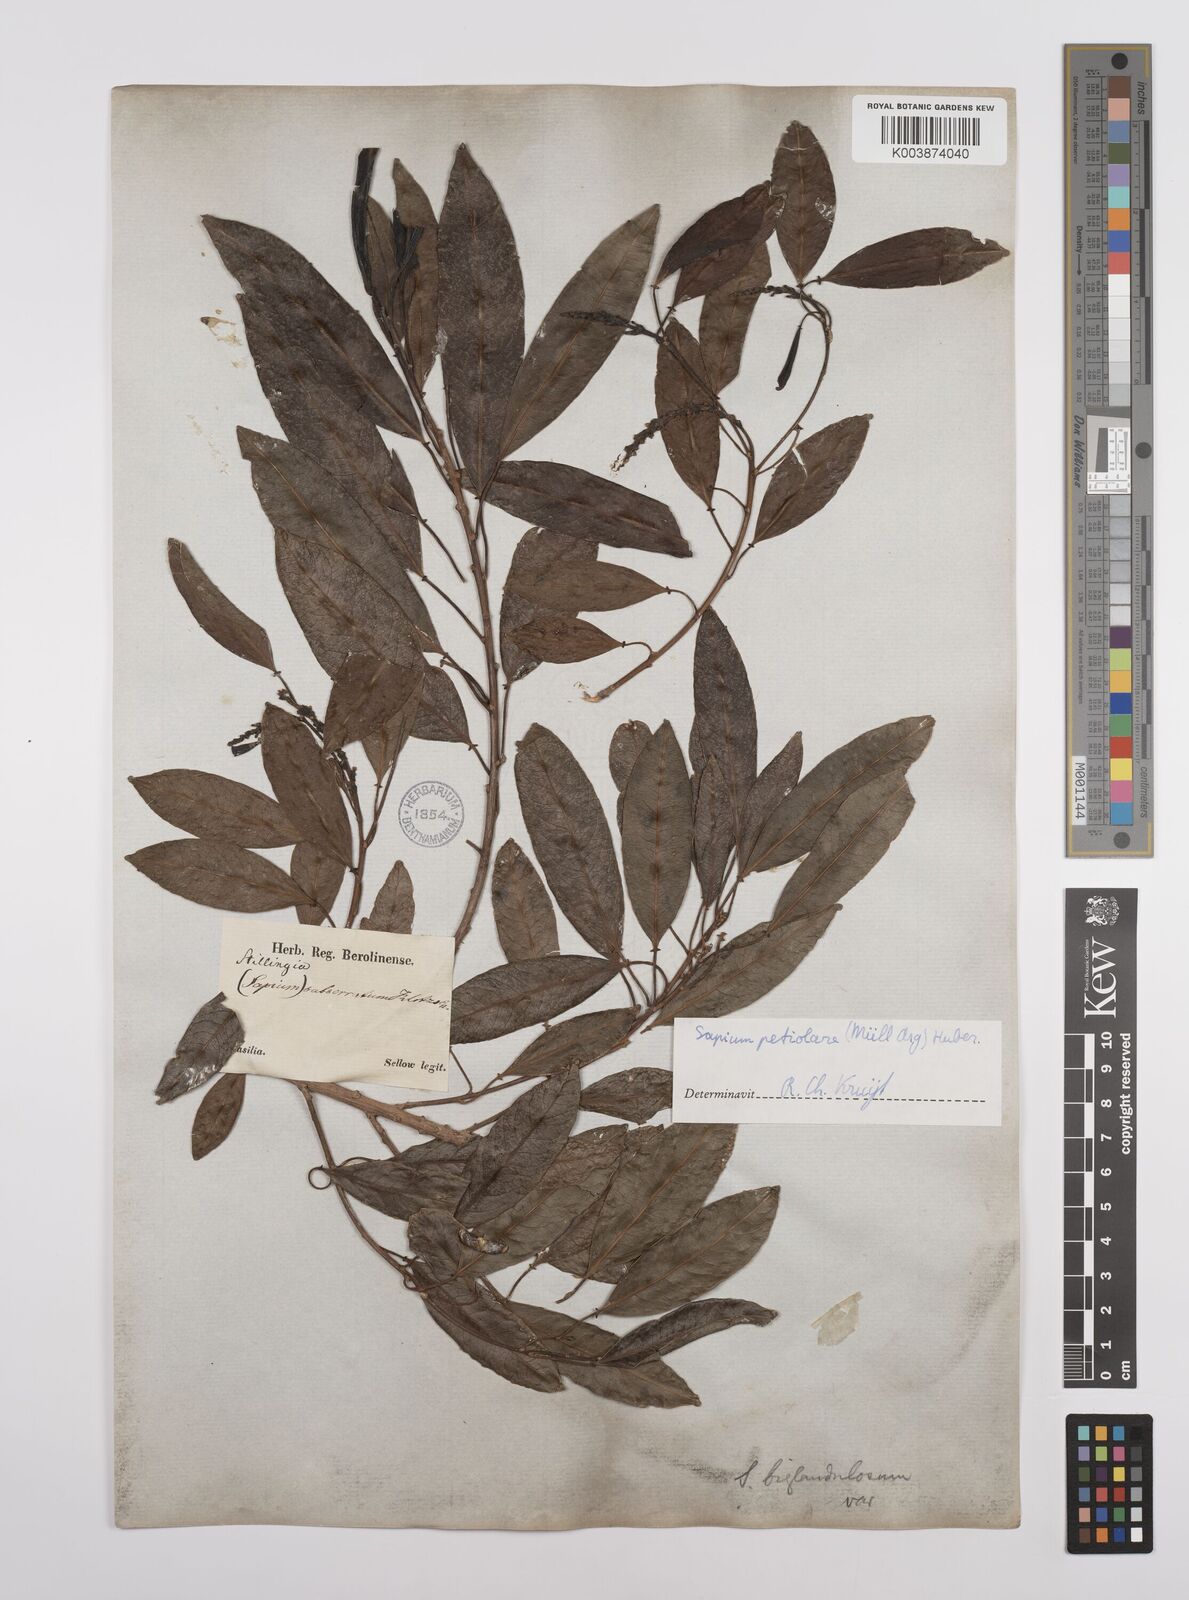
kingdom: Plantae
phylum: Tracheophyta
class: Magnoliopsida
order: Malpighiales
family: Euphorbiaceae
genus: Sapium
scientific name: Sapium glandulosum
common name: Milktree
